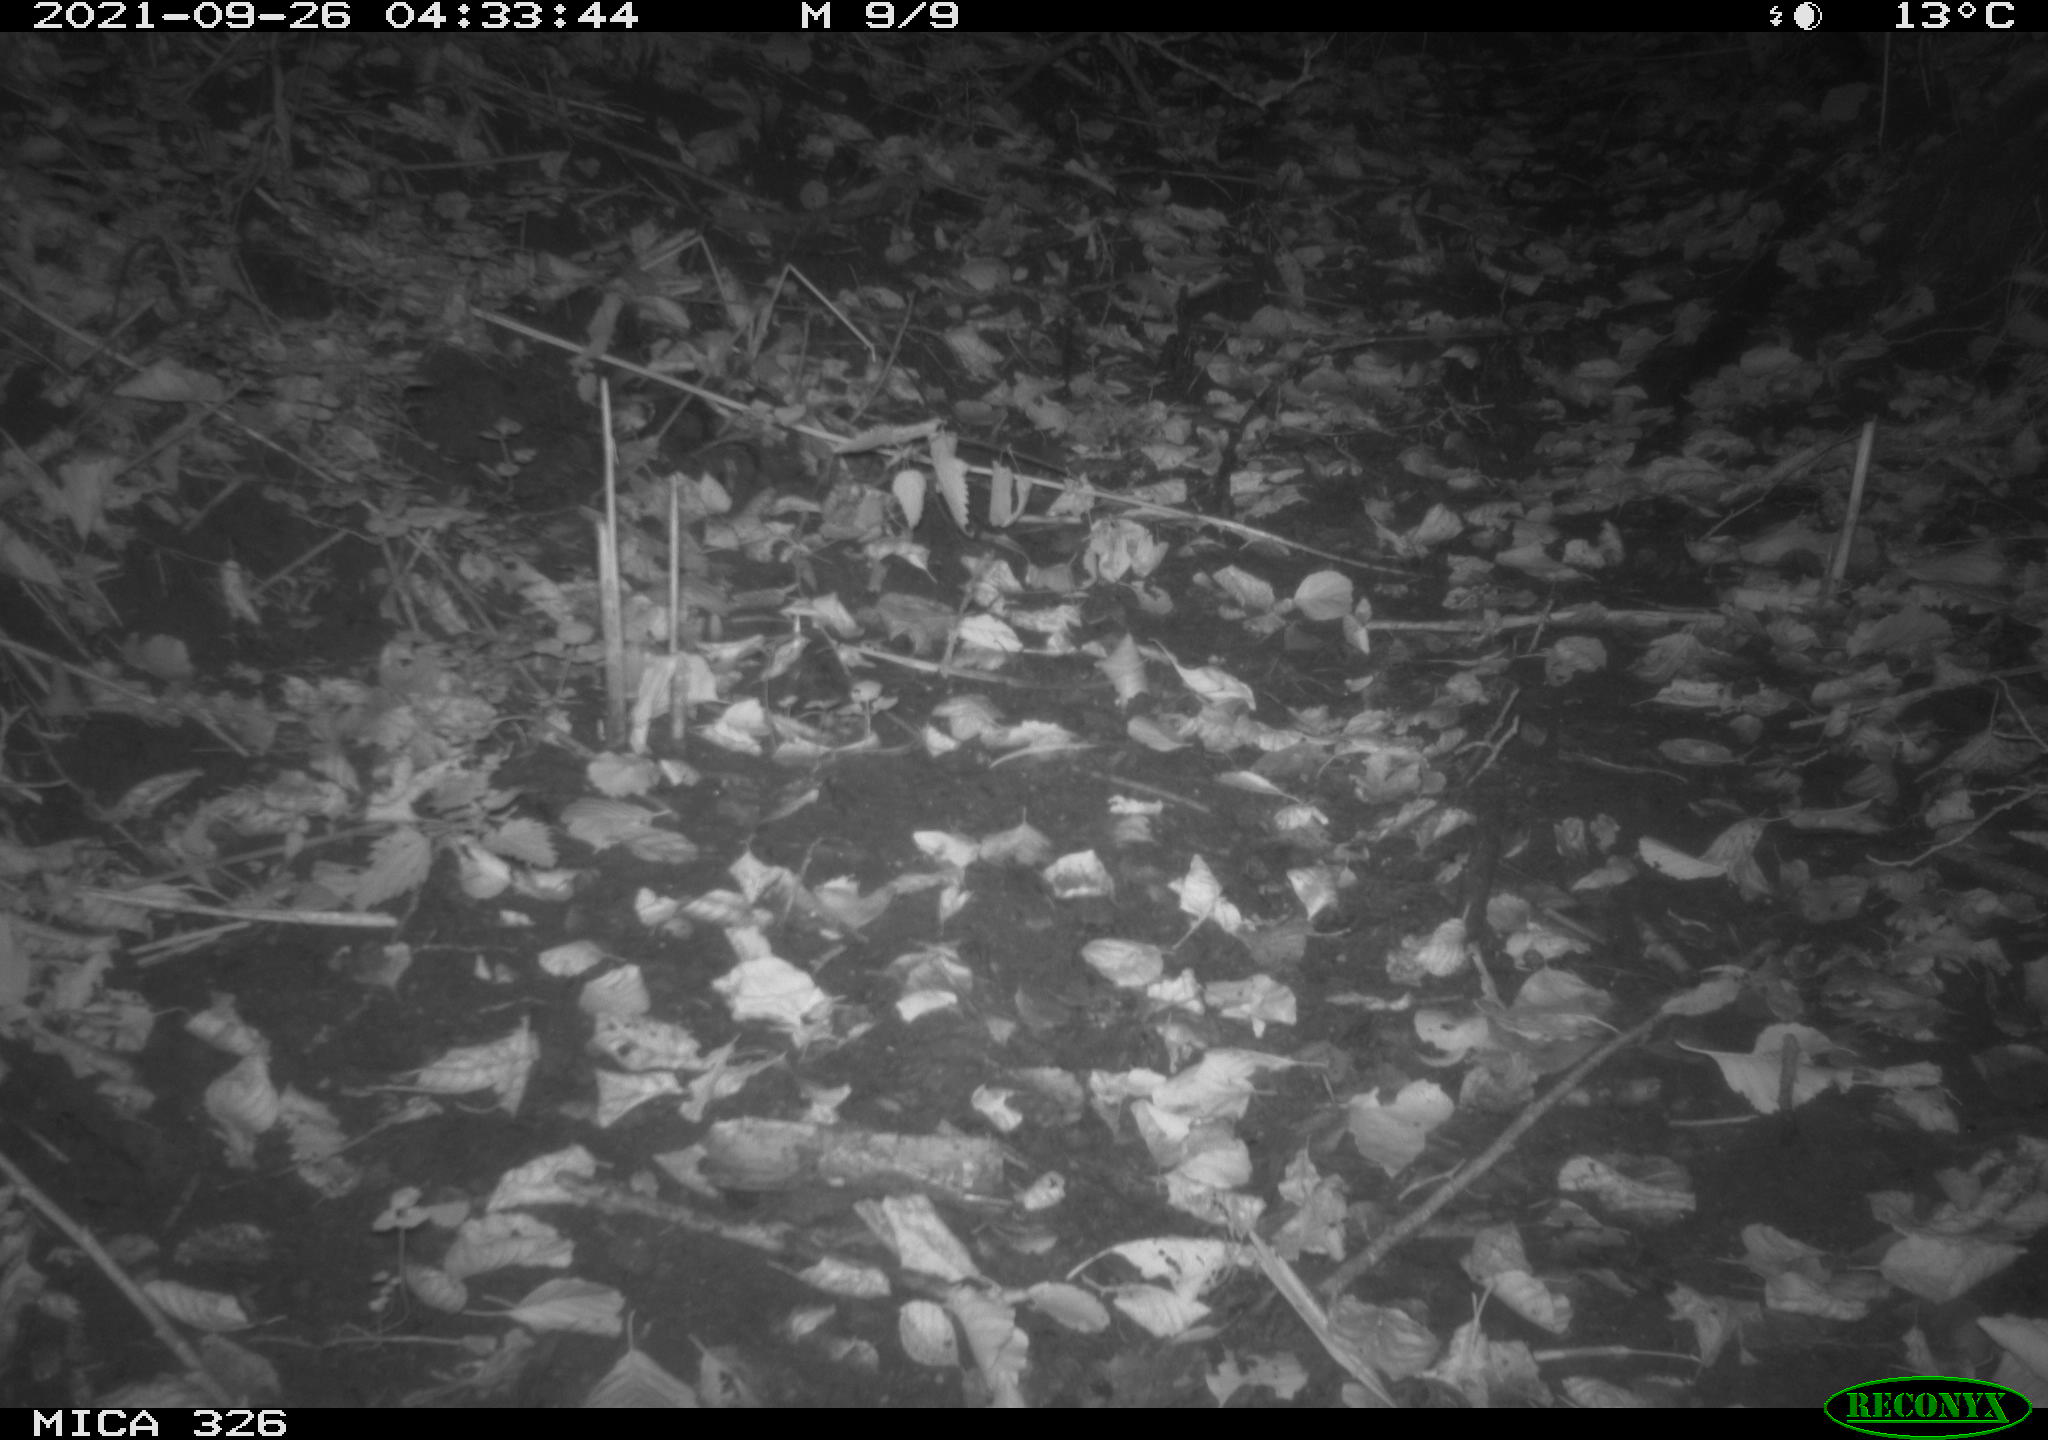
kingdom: Animalia
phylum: Chordata
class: Mammalia
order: Rodentia
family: Myocastoridae
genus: Myocastor
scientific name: Myocastor coypus
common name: Coypu
